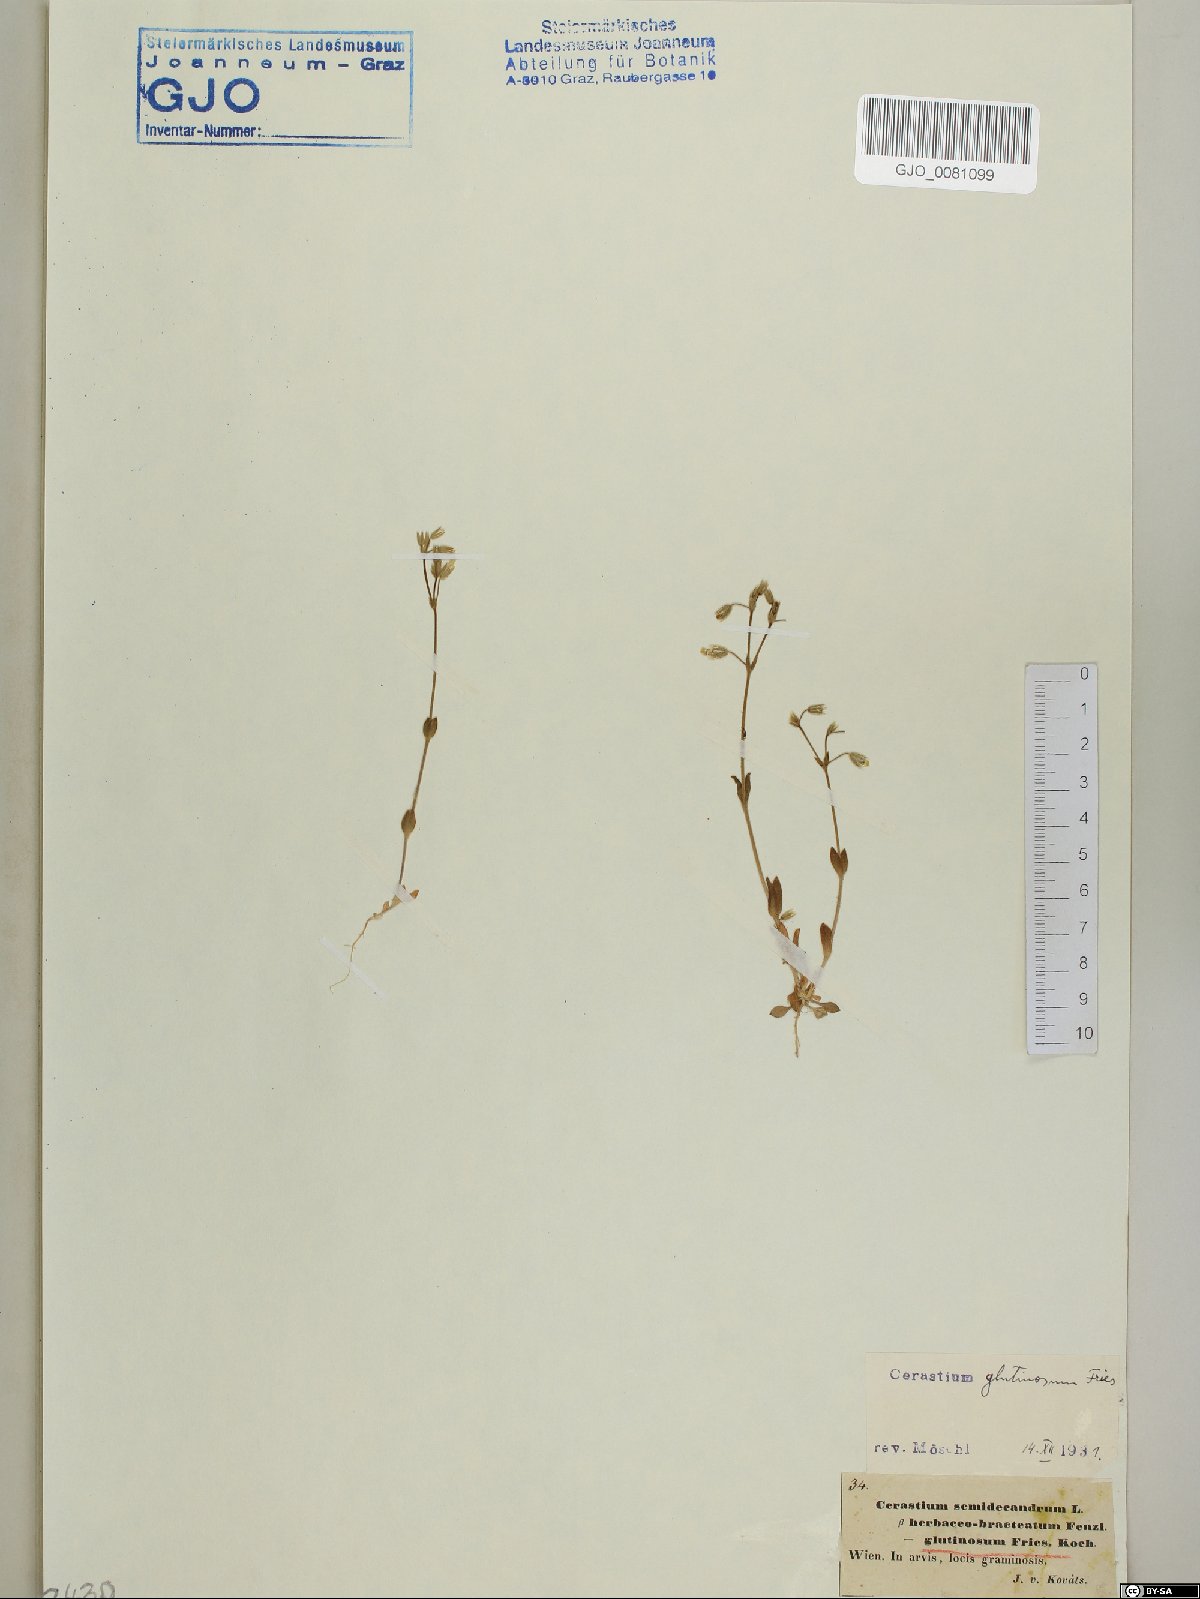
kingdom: Plantae
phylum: Tracheophyta
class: Magnoliopsida
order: Caryophyllales
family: Caryophyllaceae
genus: Cerastium
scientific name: Cerastium glutinosum
